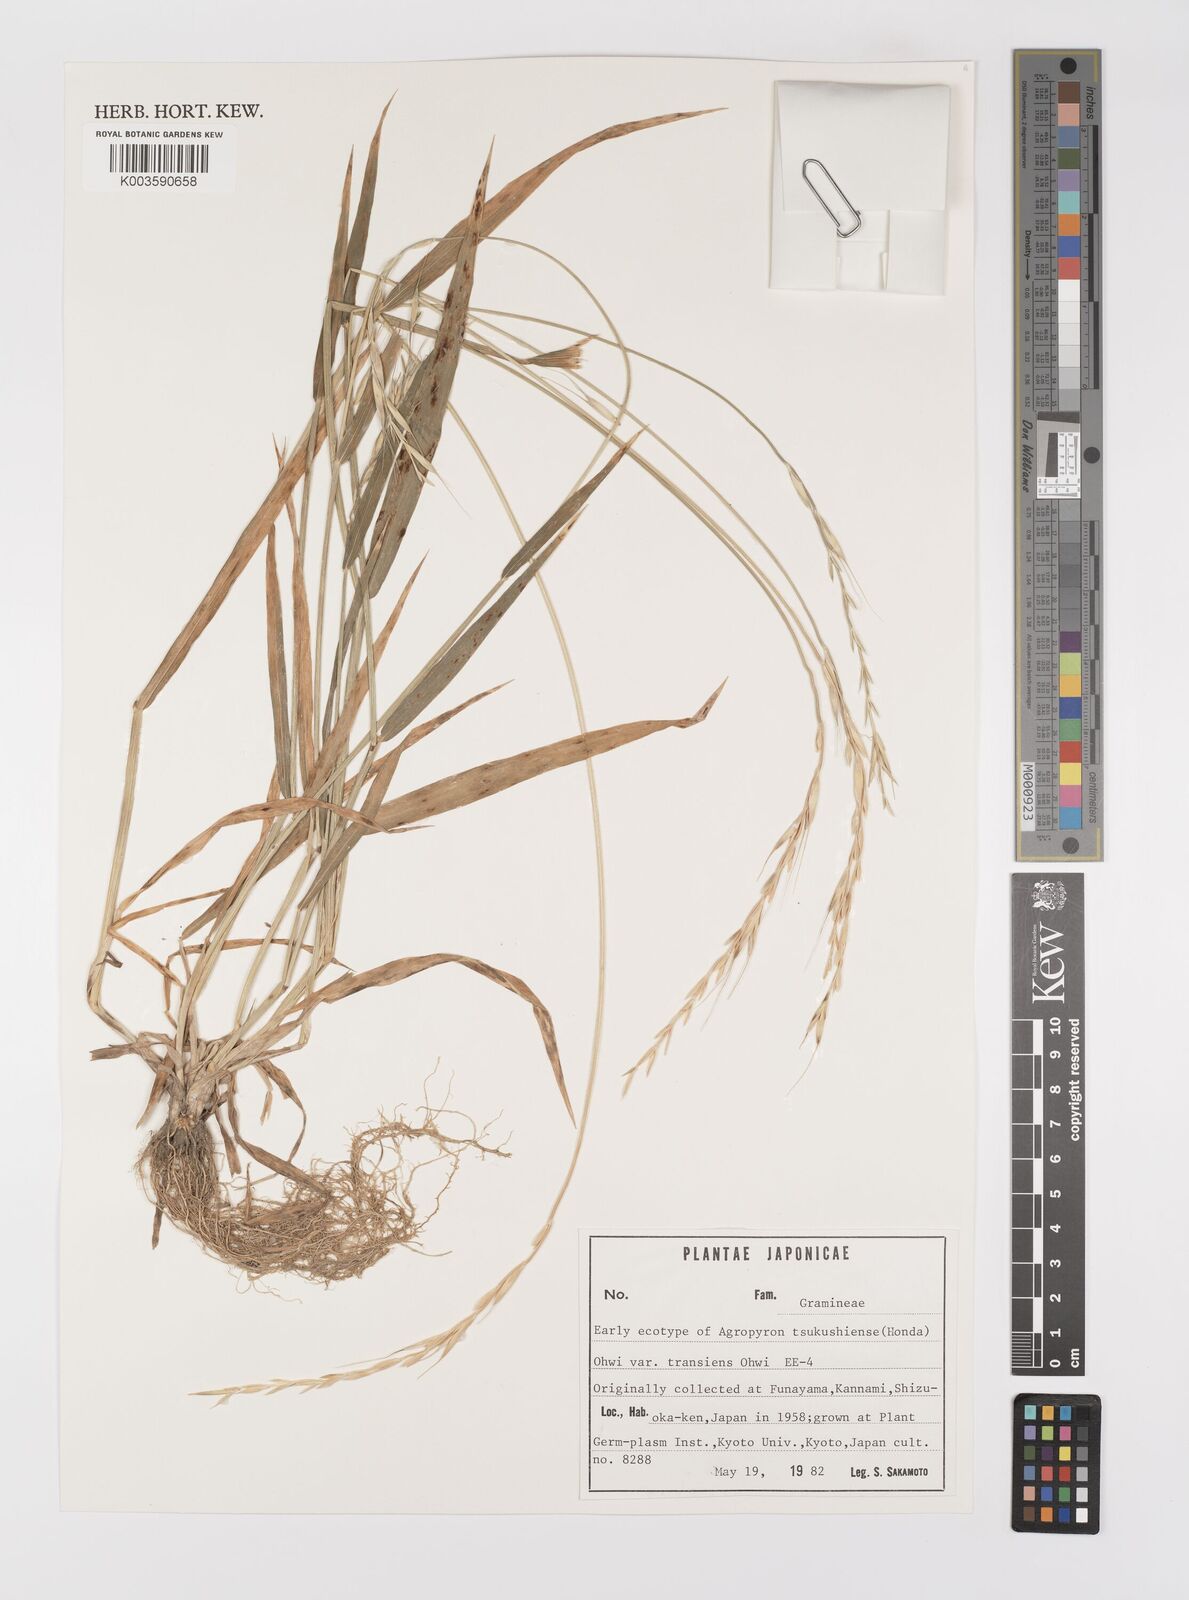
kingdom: Plantae
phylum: Tracheophyta
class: Liliopsida
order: Poales
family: Poaceae
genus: Elymus
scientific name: Elymus tsukushiensis
